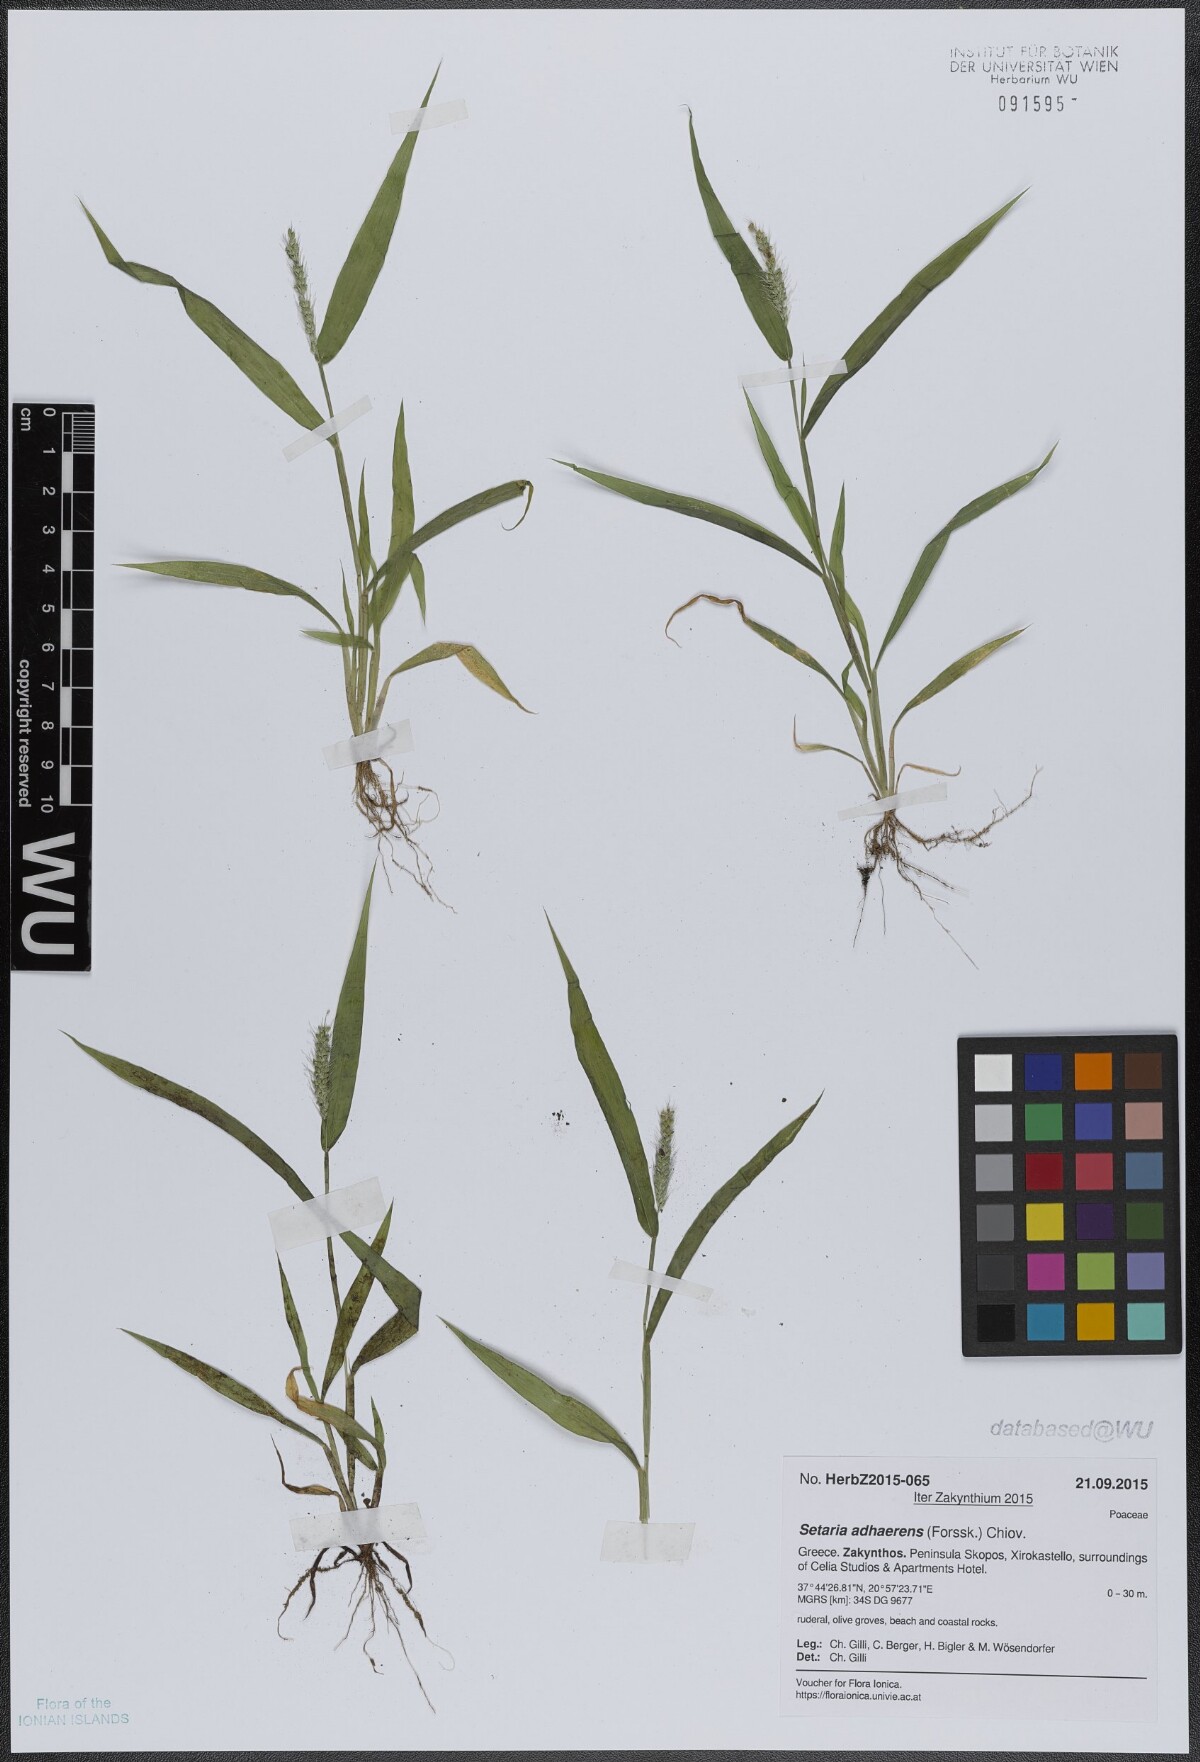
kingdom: Plantae
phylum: Tracheophyta
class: Liliopsida
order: Poales
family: Poaceae
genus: Setaria
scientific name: Setaria adhaerens
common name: Adherent bristle-grass
